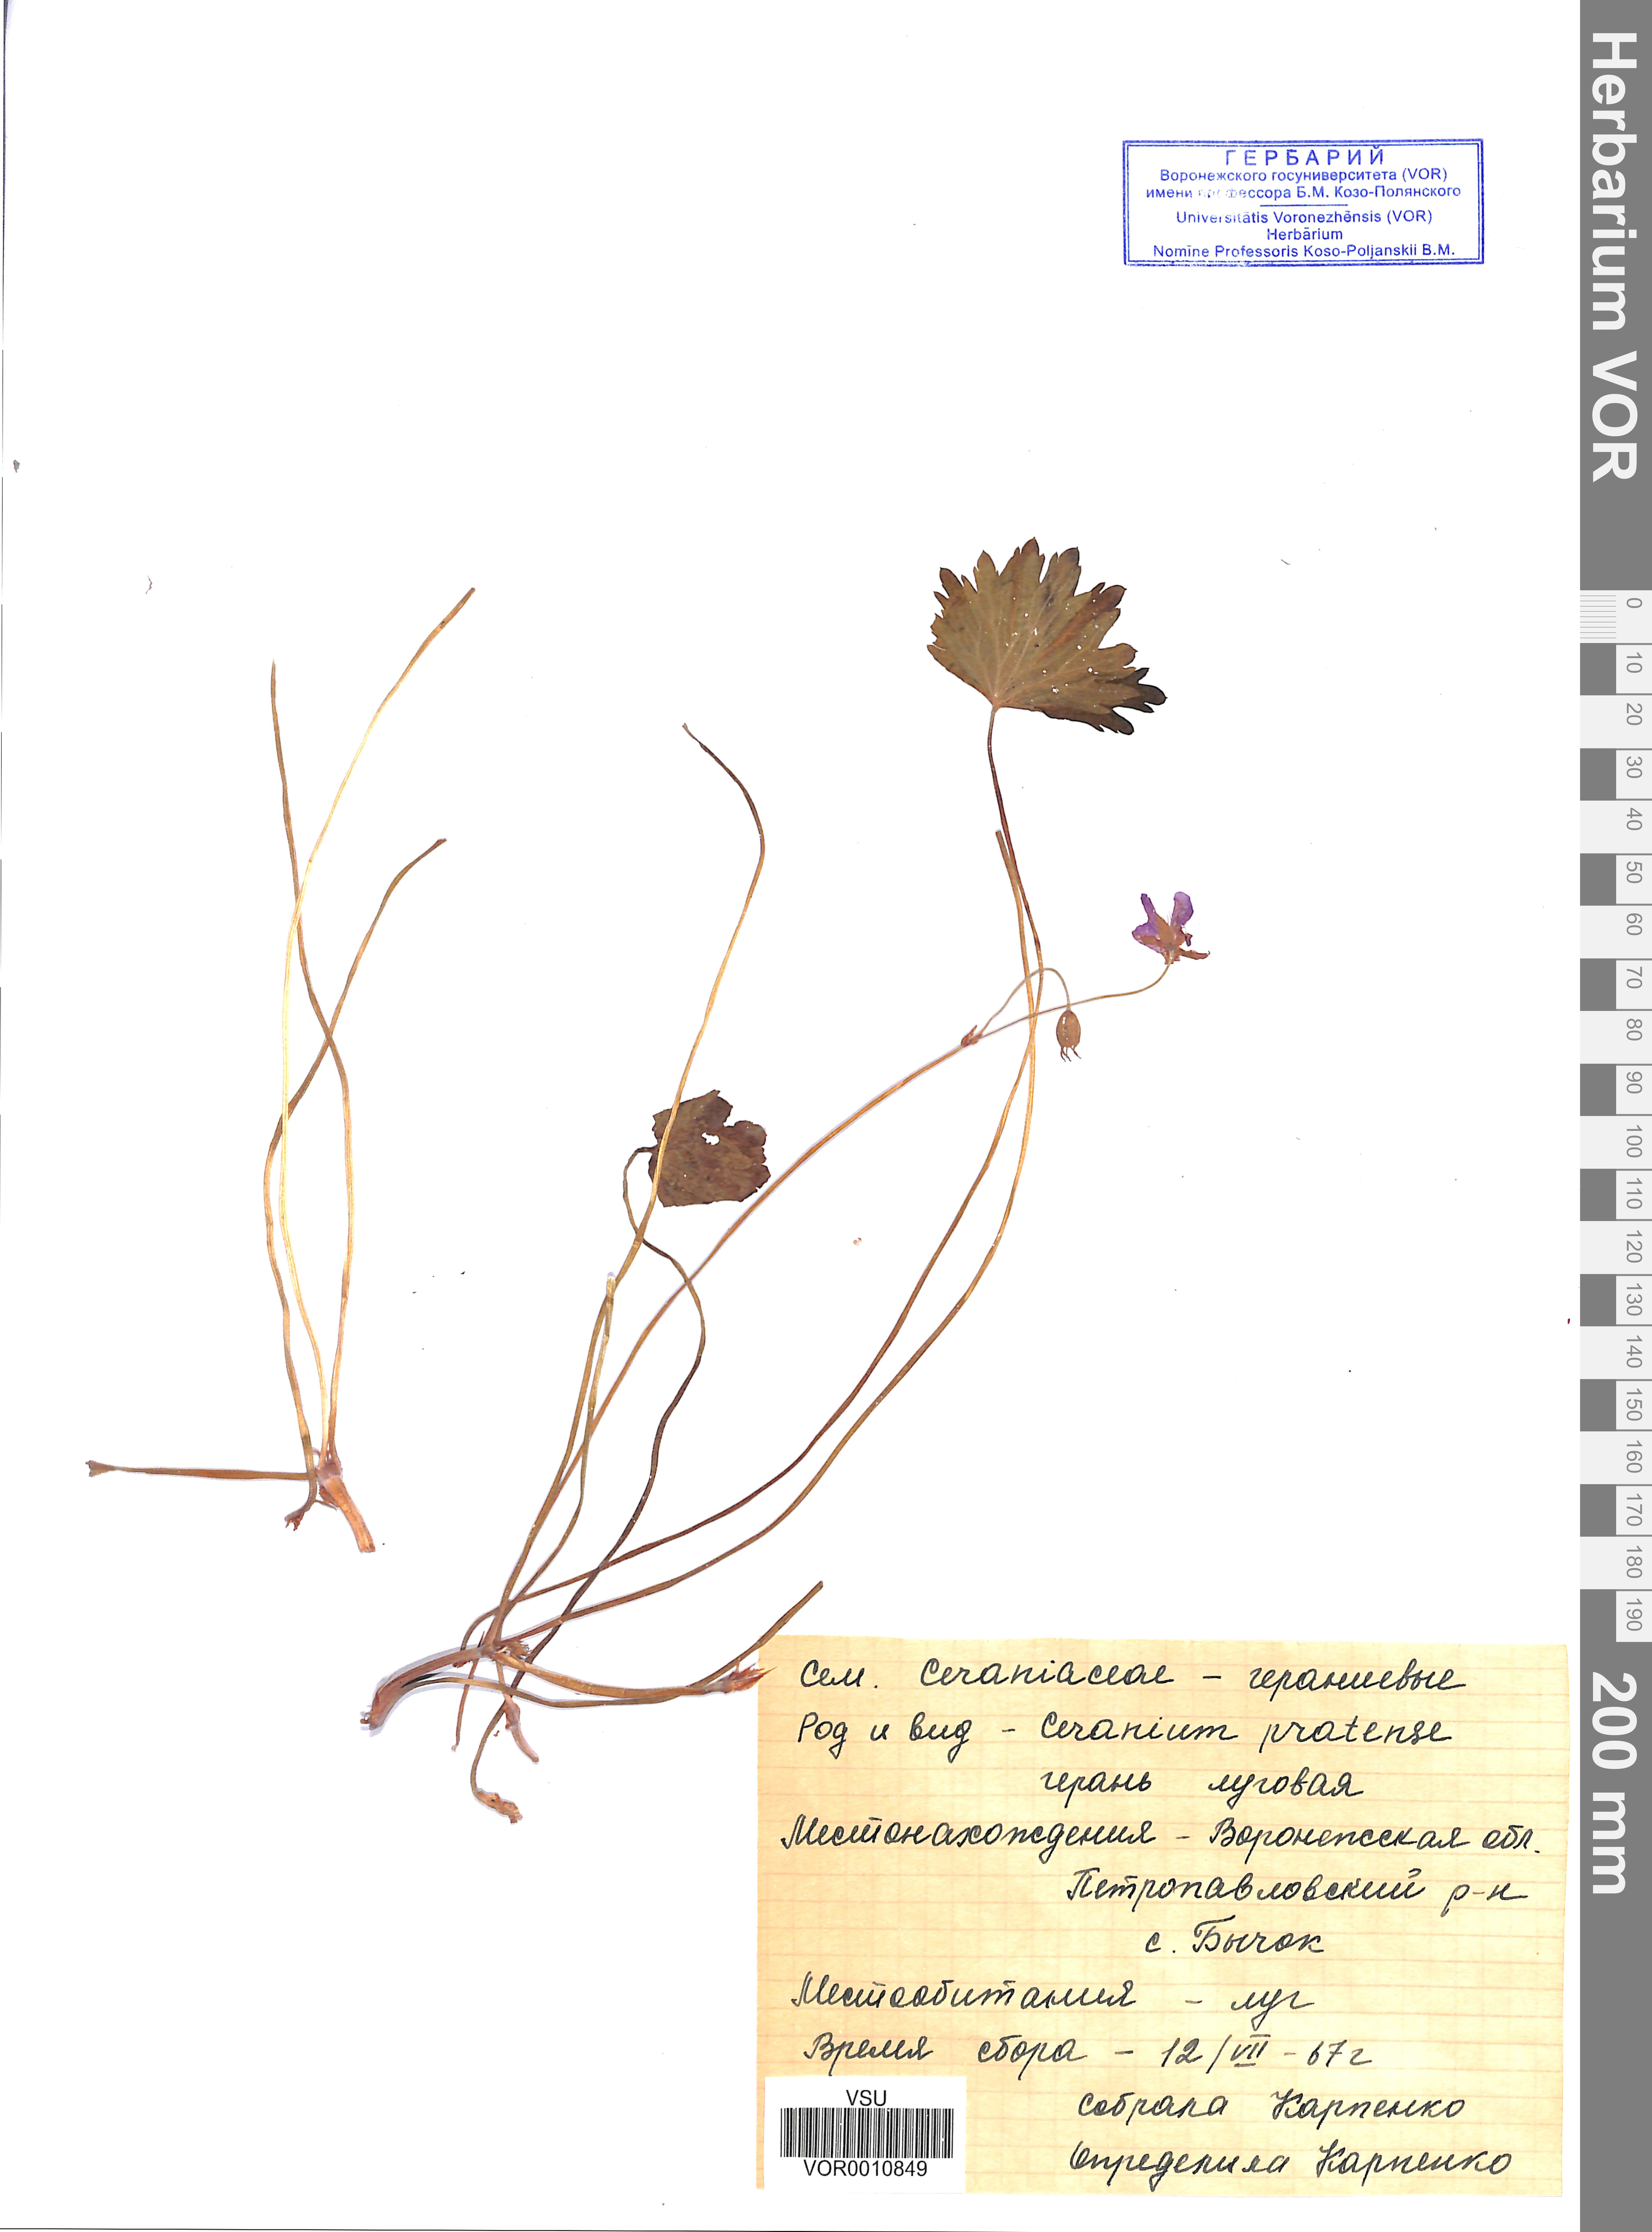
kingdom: Plantae
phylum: Tracheophyta
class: Magnoliopsida
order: Geraniales
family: Geraniaceae
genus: Geranium
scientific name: Geranium pratense
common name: Meadow crane's-bill
